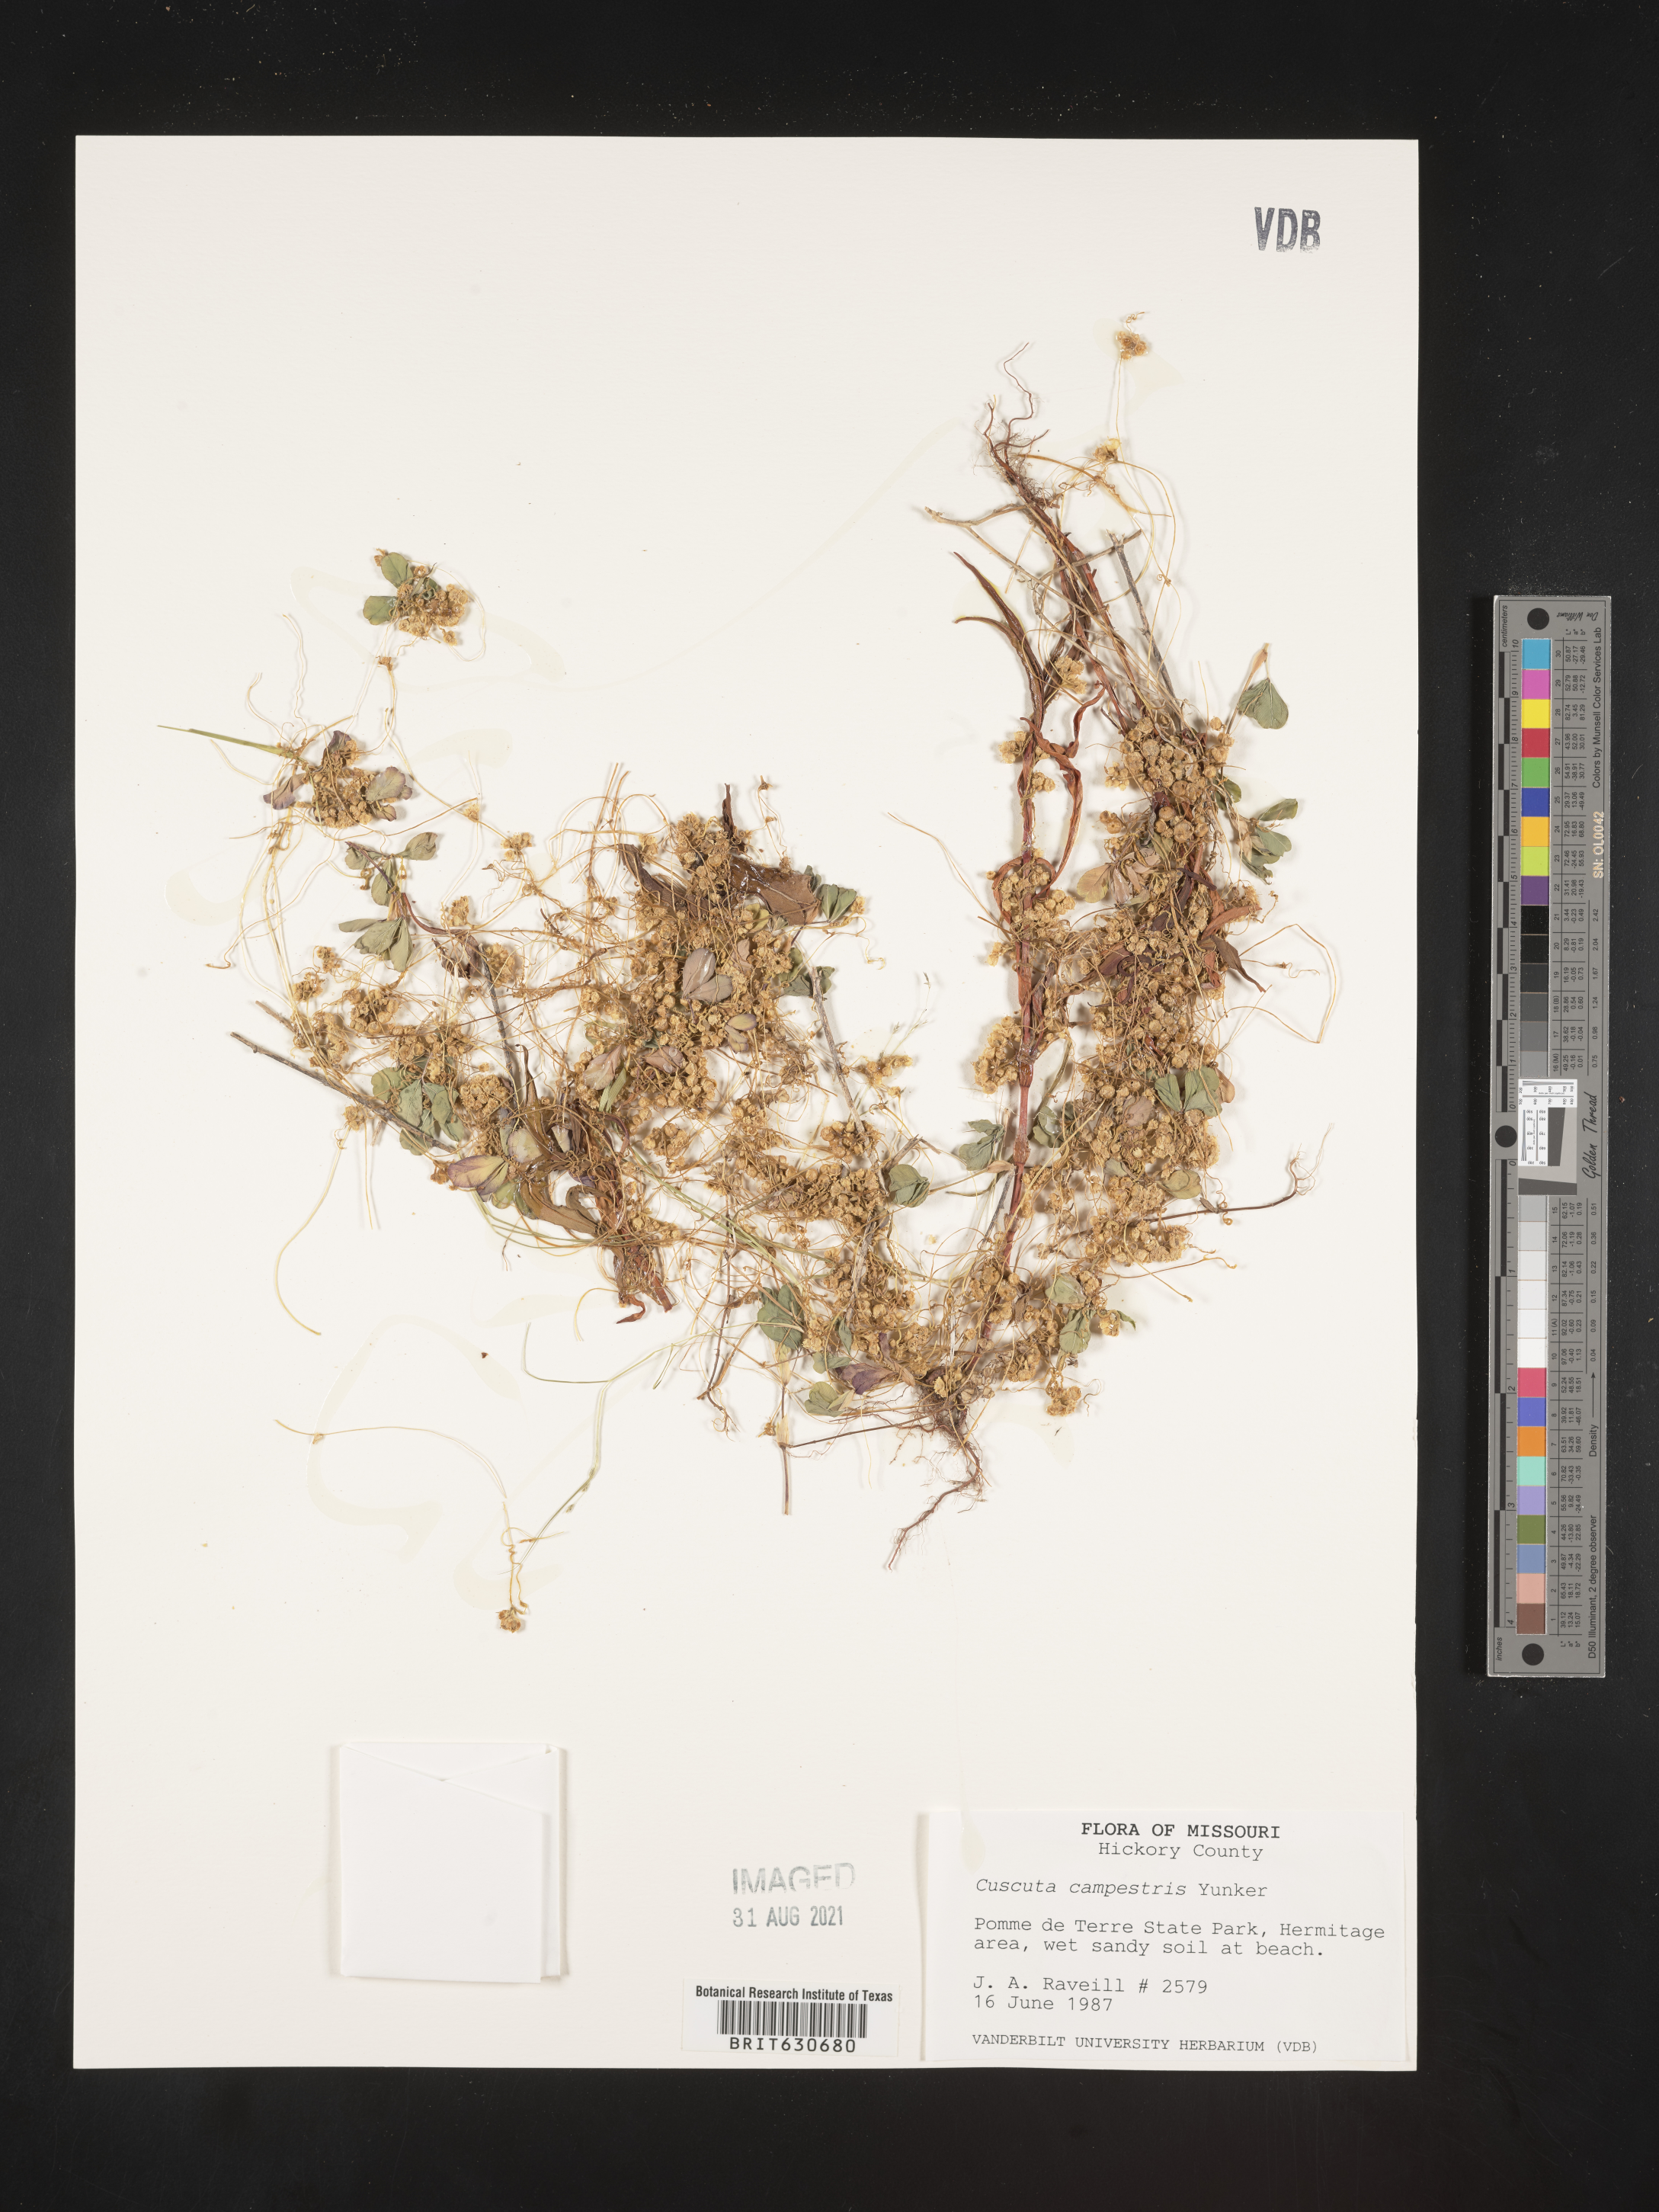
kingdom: Plantae
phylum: Tracheophyta
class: Magnoliopsida
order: Solanales
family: Convolvulaceae
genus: Cuscuta
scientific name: Cuscuta campestris
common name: Yellow dodder
